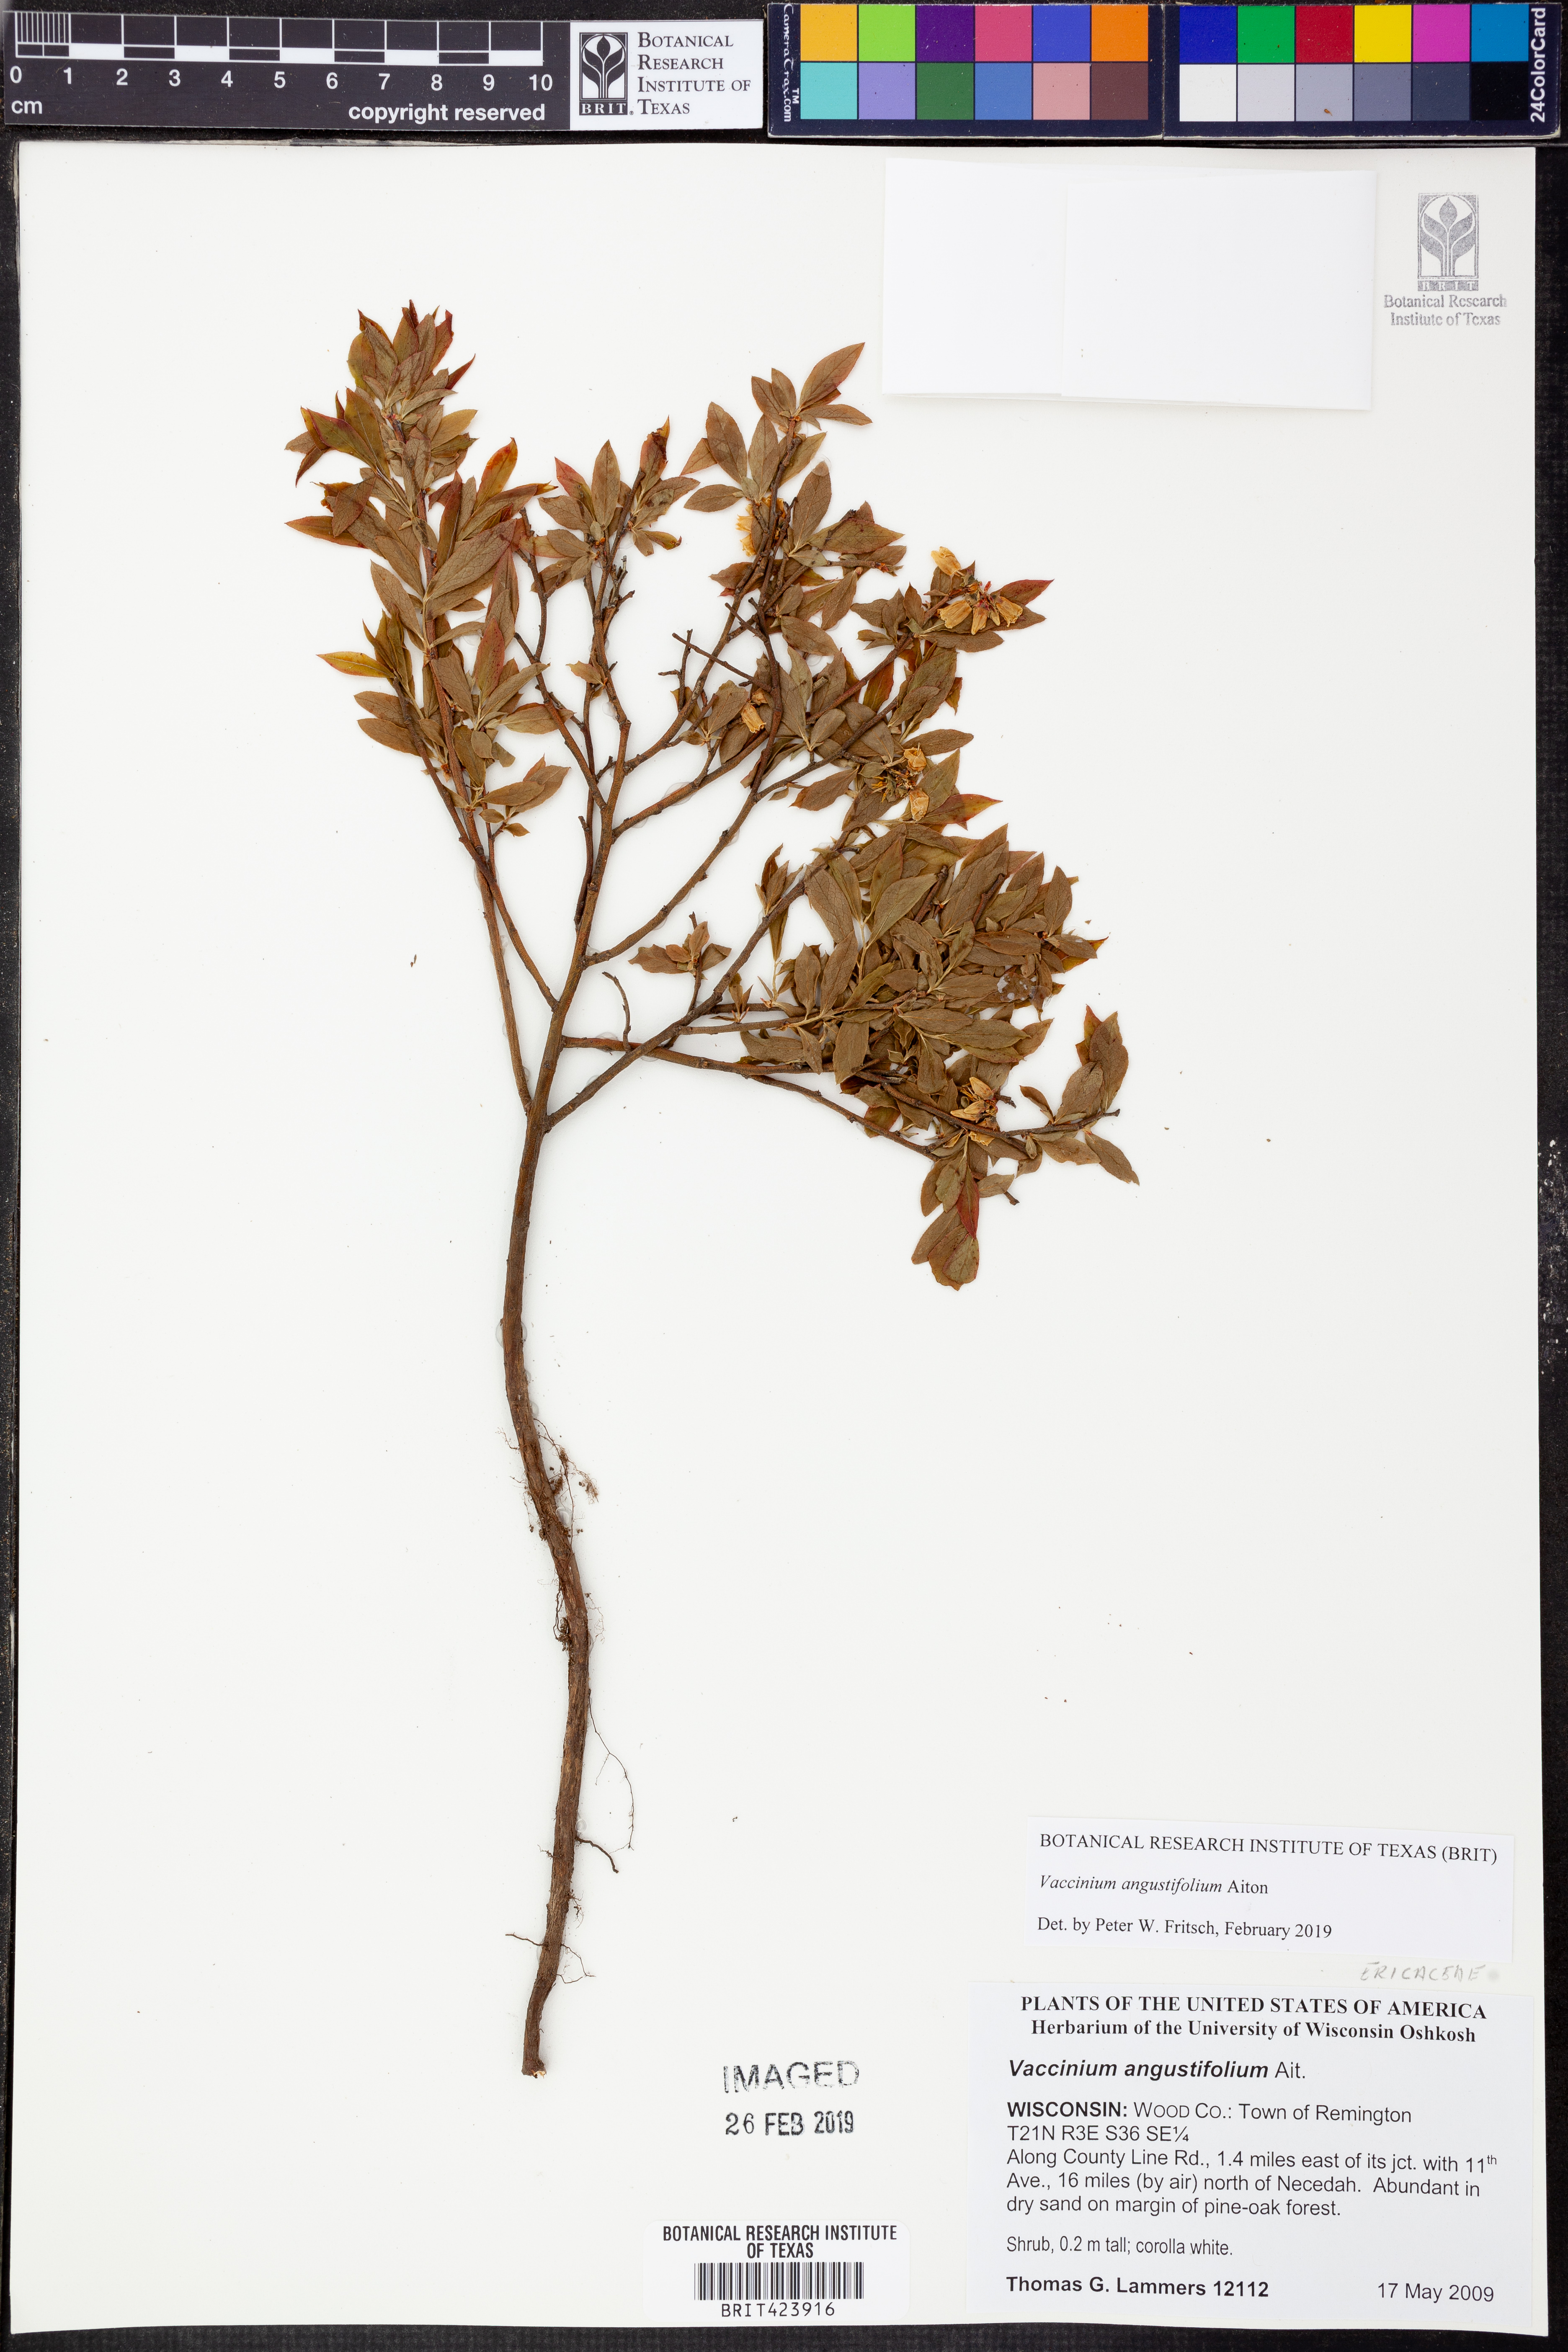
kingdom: Plantae
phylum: Tracheophyta
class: Magnoliopsida
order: Ericales
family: Ericaceae
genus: Vaccinium
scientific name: Vaccinium angustifolium
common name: Early lowbush blueberry
